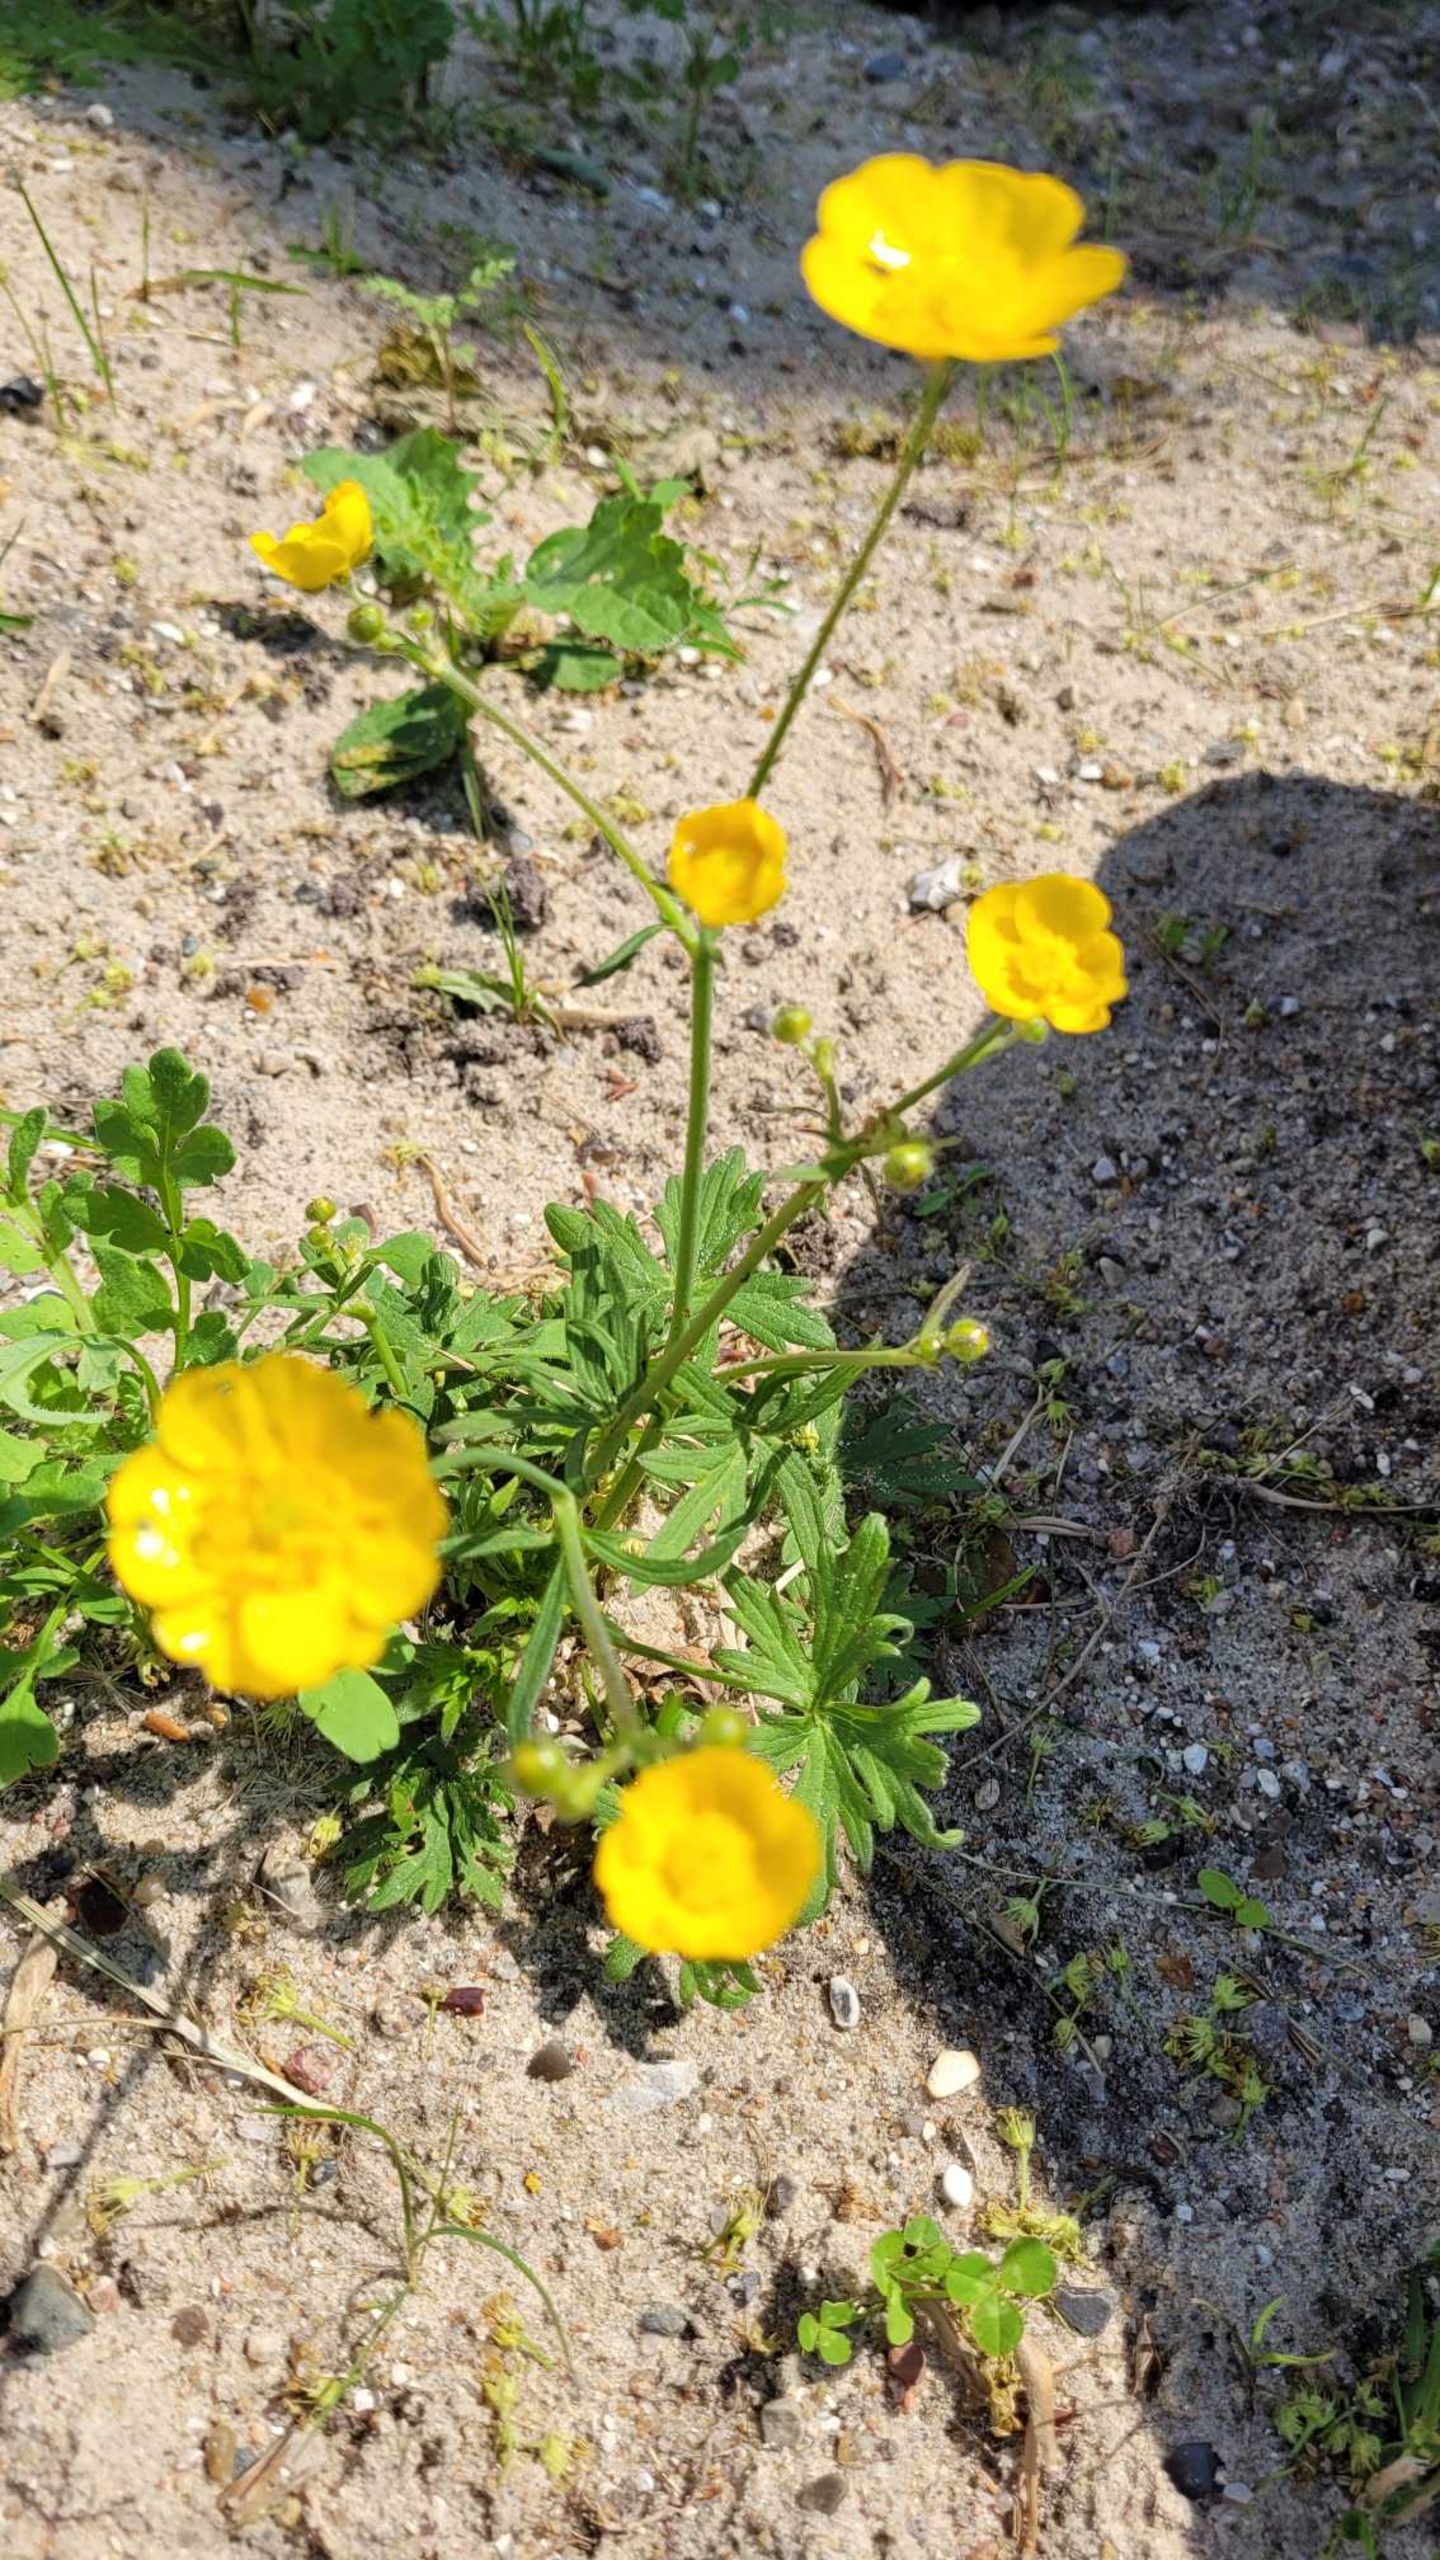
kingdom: Plantae
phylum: Tracheophyta
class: Magnoliopsida
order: Ranunculales
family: Ranunculaceae
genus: Ranunculus
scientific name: Ranunculus acris
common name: Bidende ranunkel
